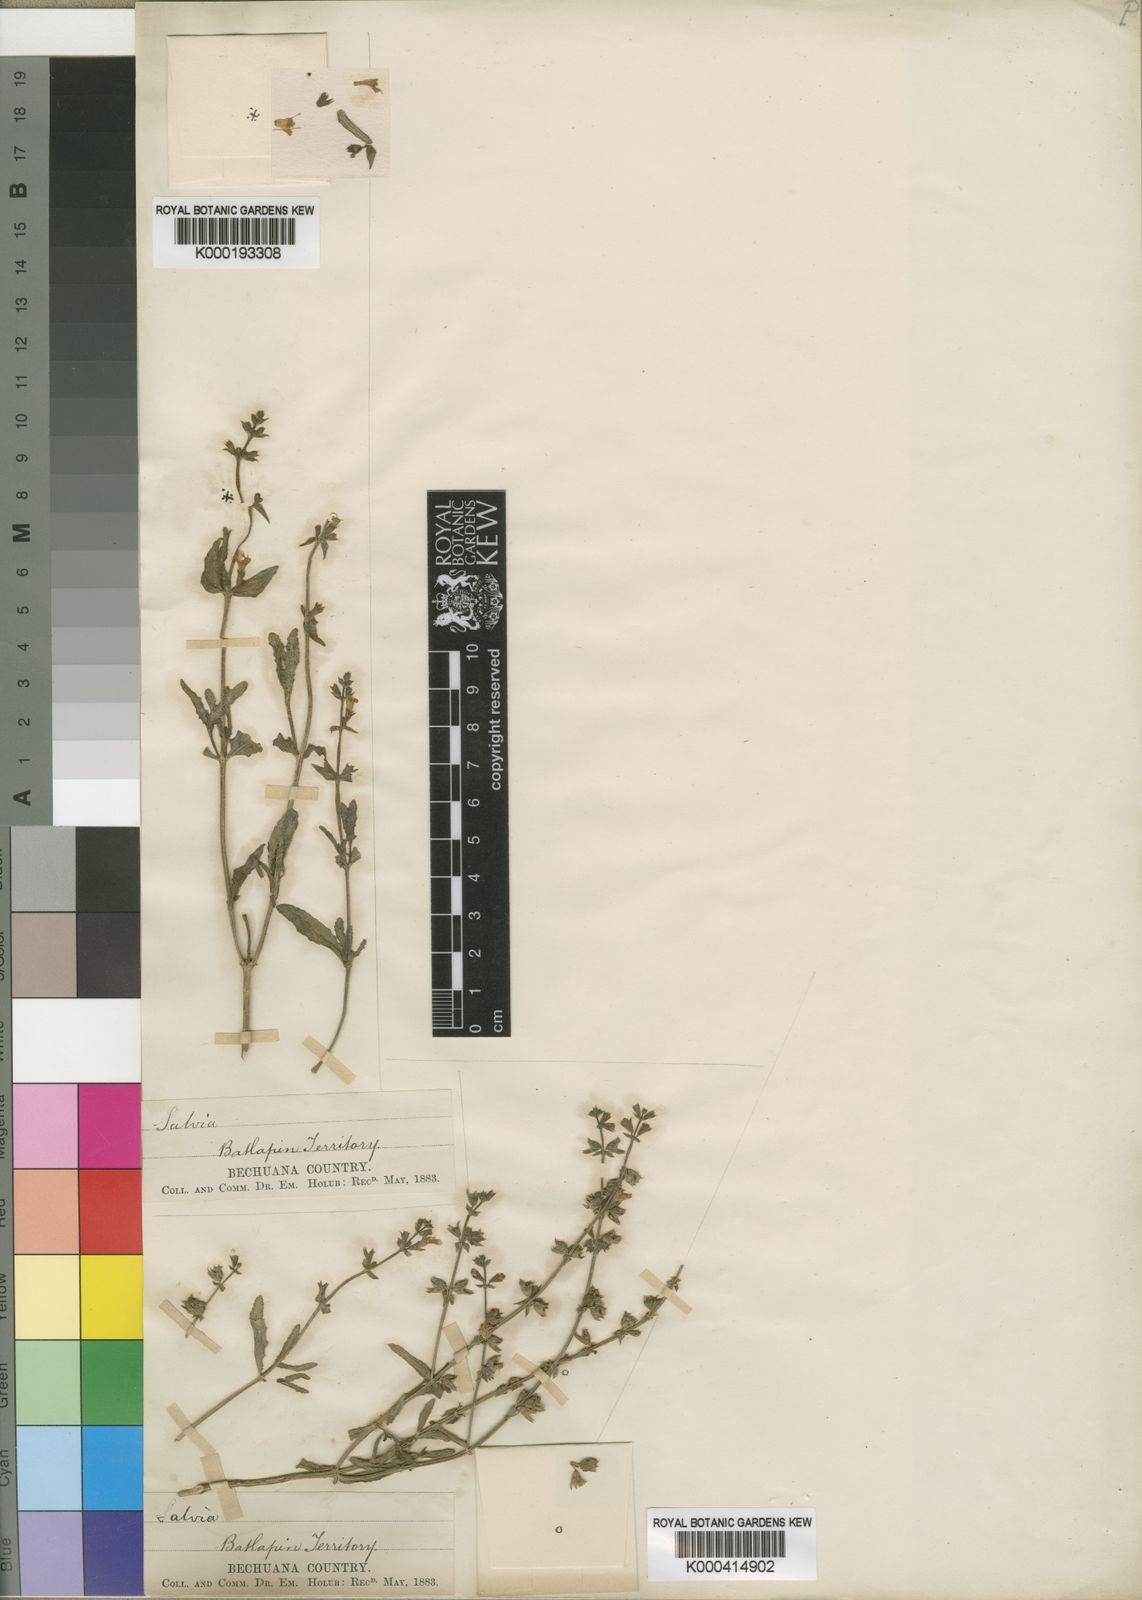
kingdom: Plantae
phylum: Tracheophyta
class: Magnoliopsida
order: Lamiales
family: Lamiaceae
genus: Salvia
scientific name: Salvia stenophylla
